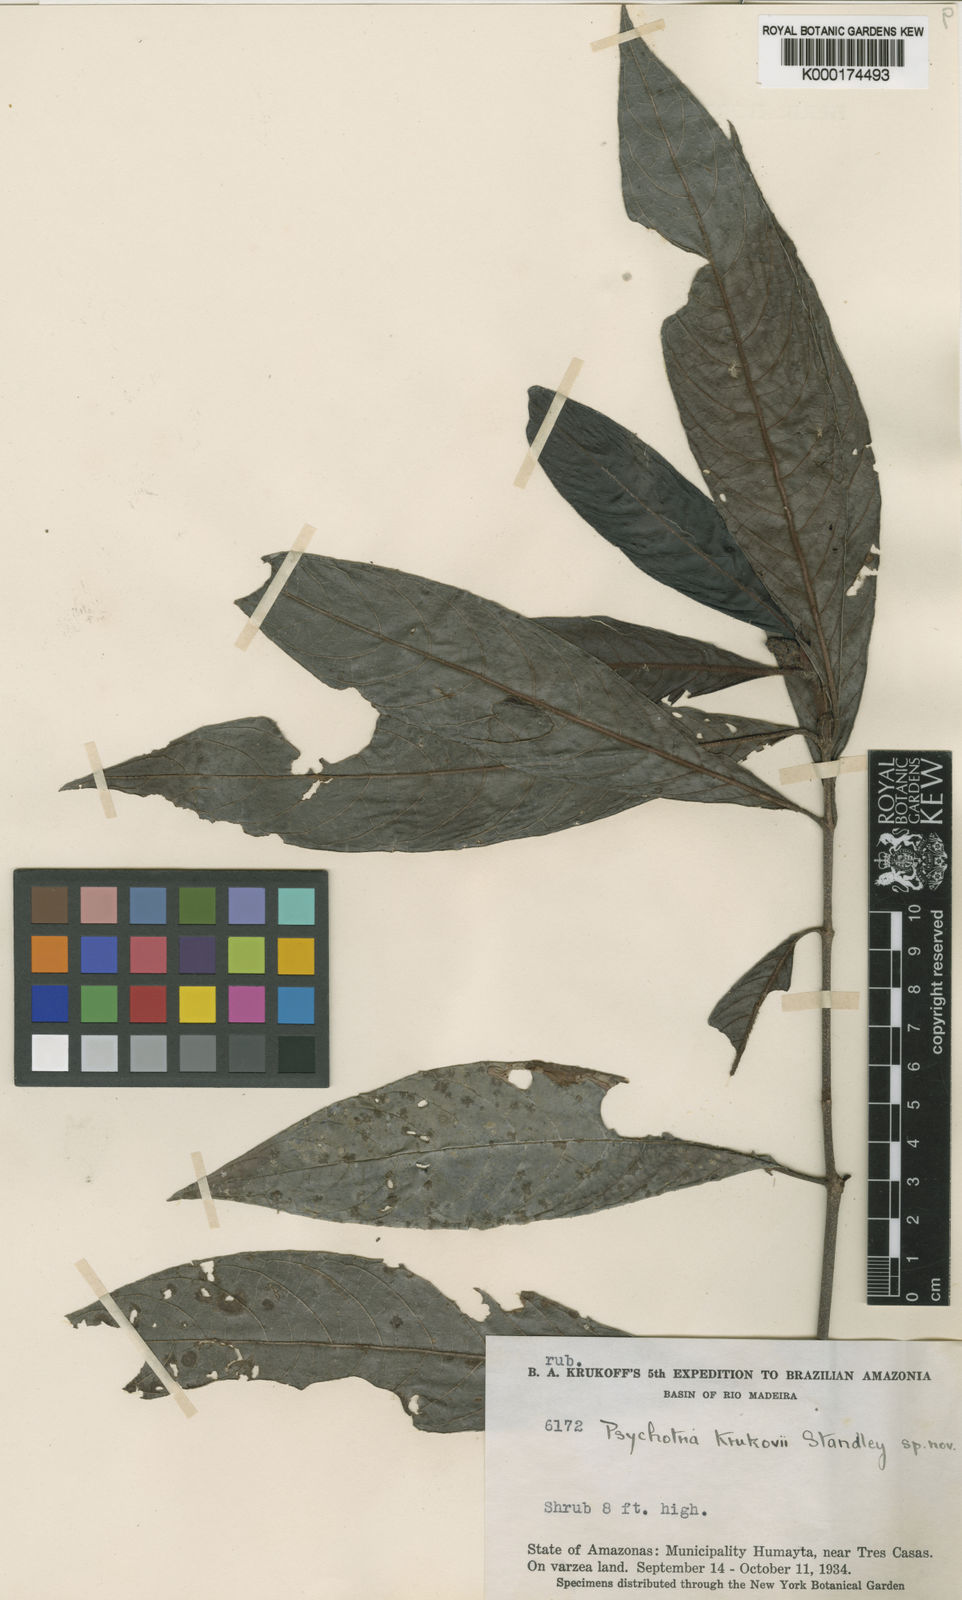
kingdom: Plantae
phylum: Tracheophyta
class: Magnoliopsida
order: Gentianales
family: Rubiaceae
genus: Psychotria
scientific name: Psychotria krukovii
